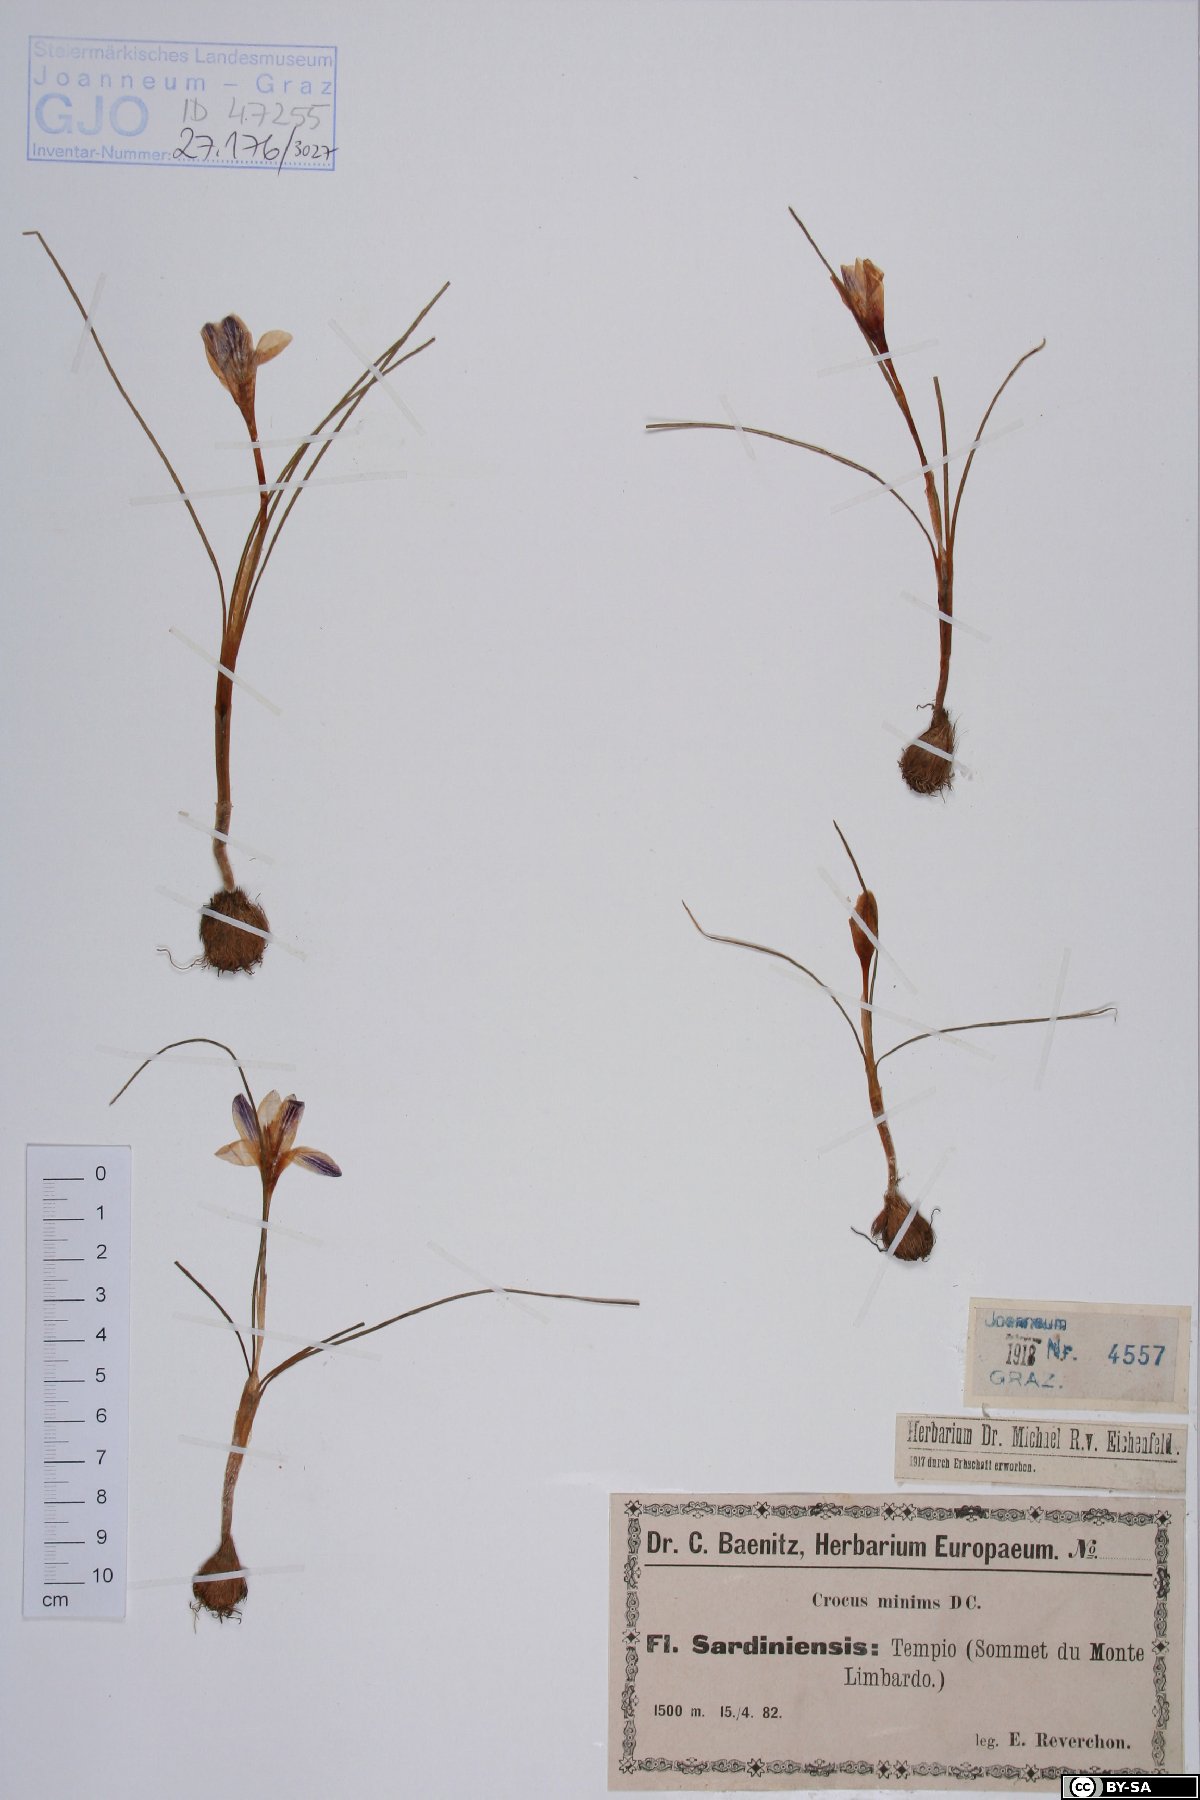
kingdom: Plantae
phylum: Tracheophyta
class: Liliopsida
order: Asparagales
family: Iridaceae
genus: Crocus
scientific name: Crocus minimus
